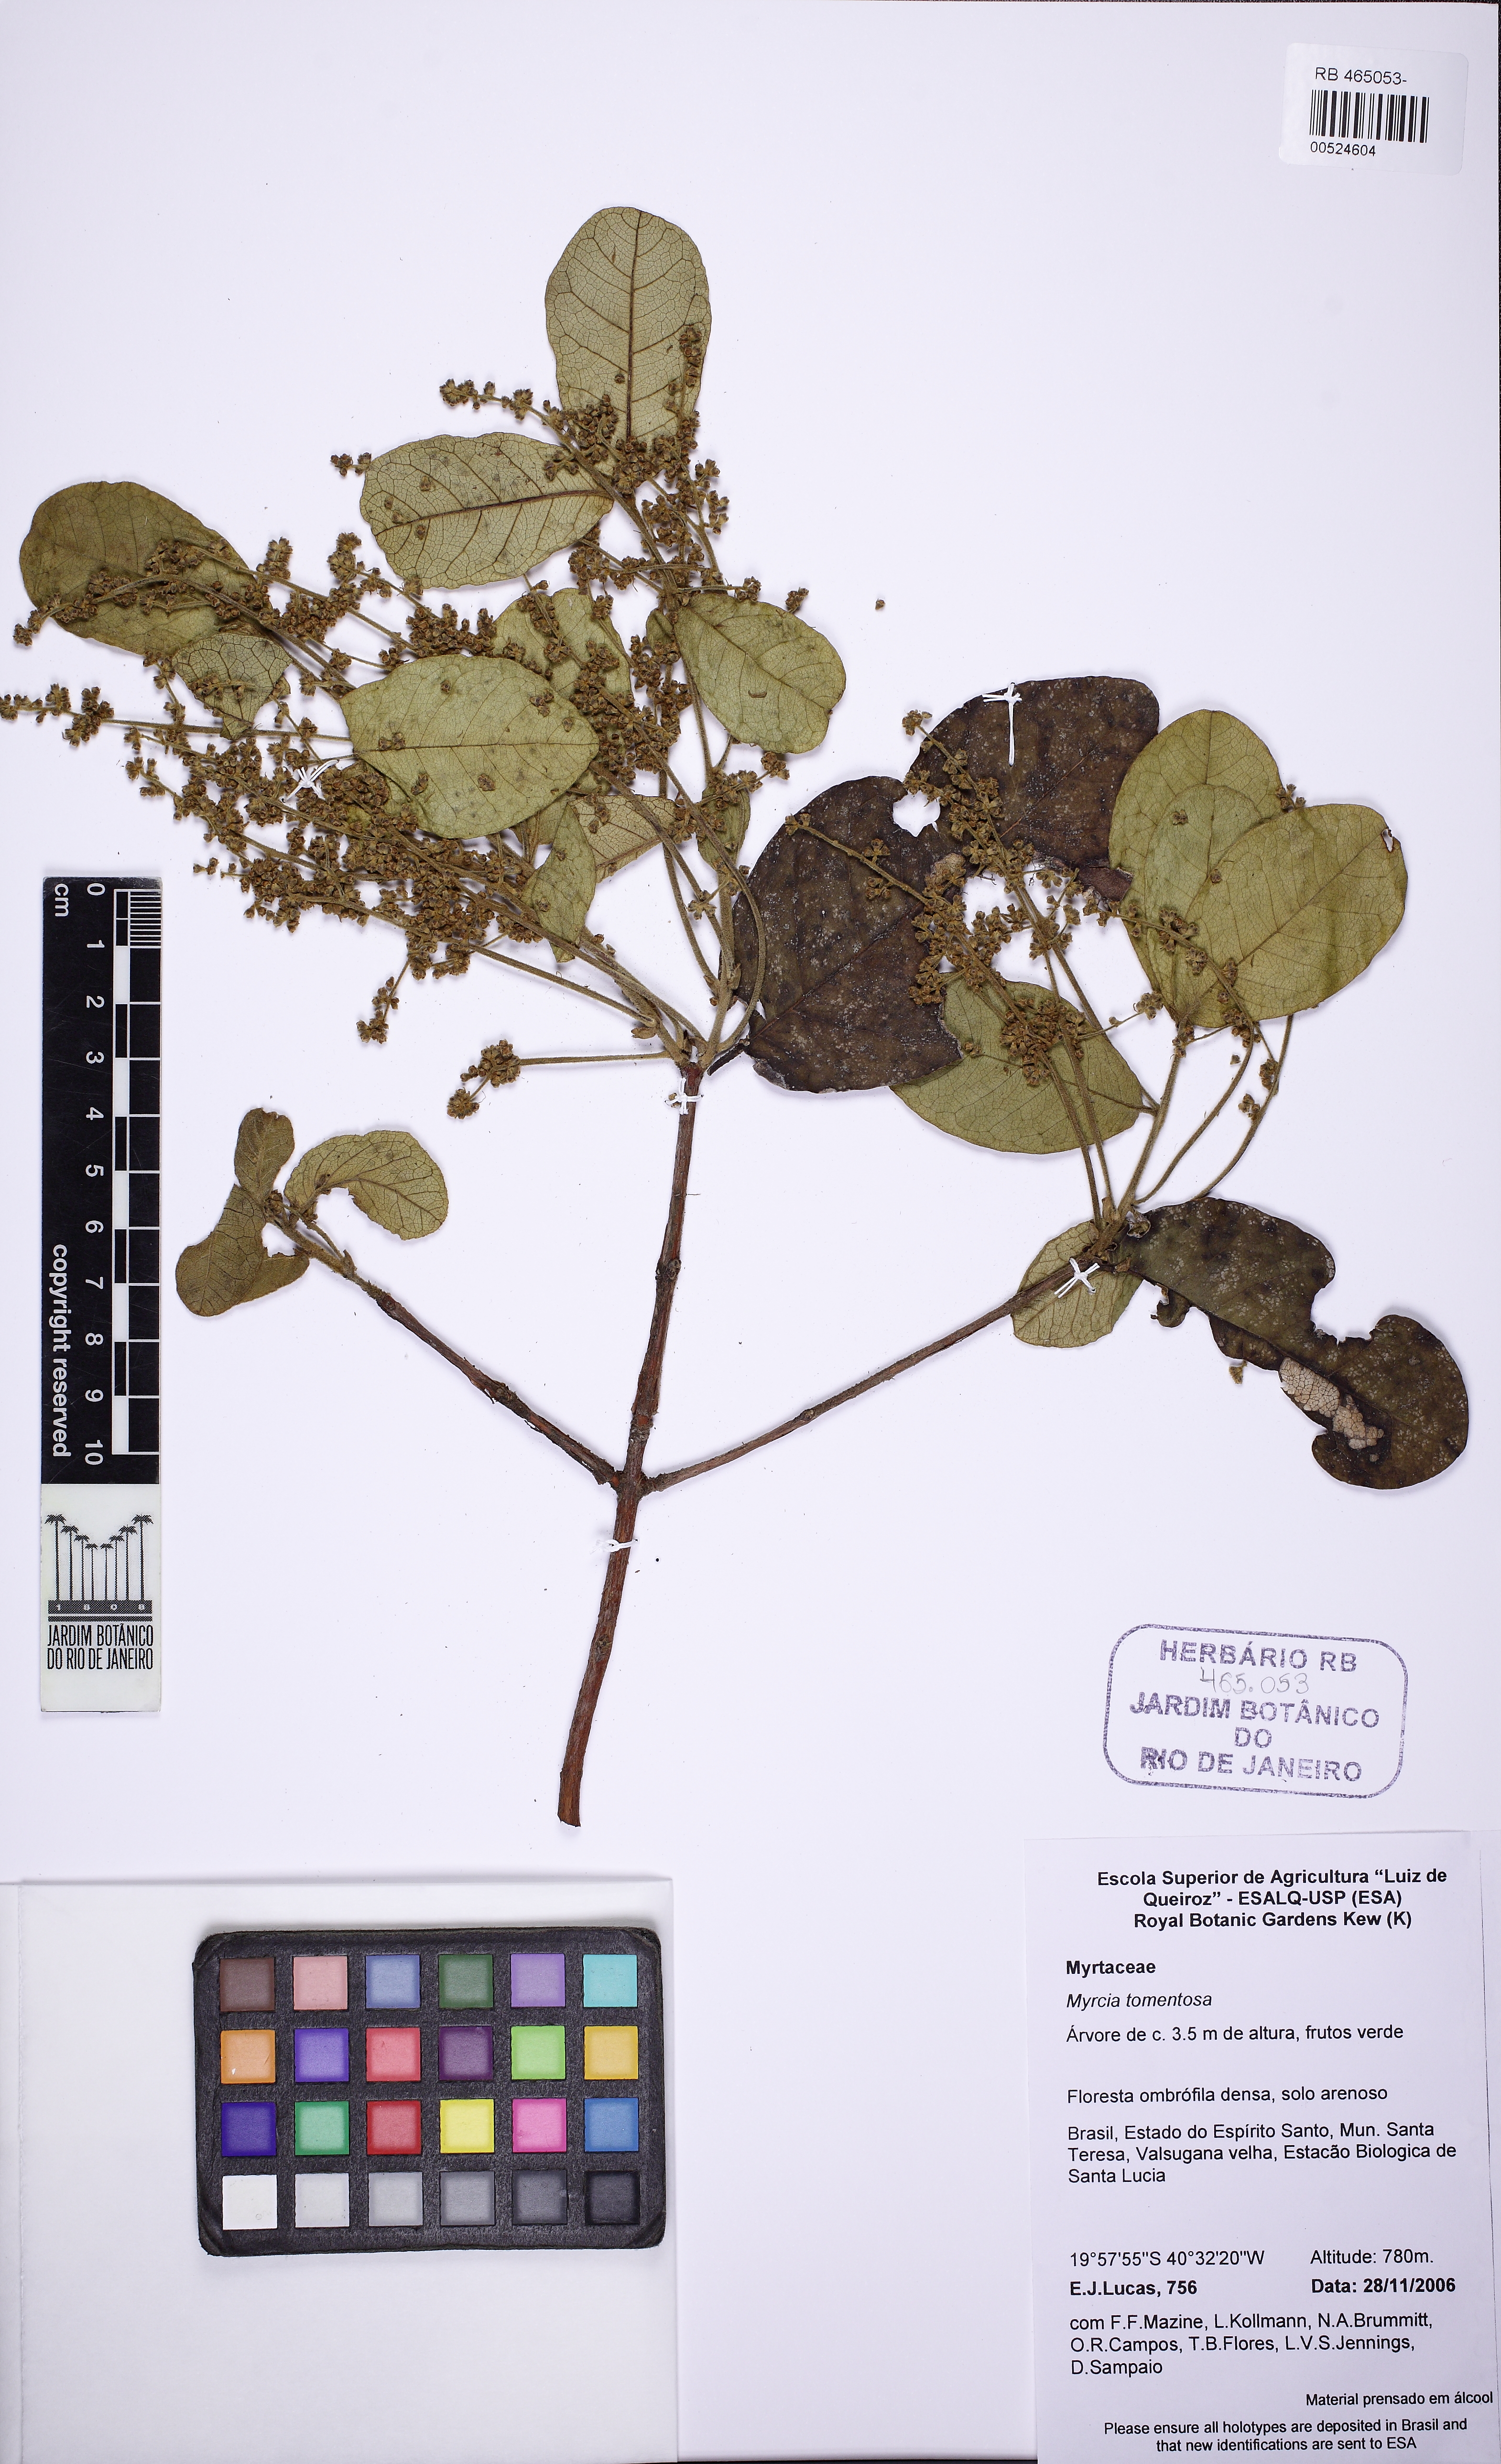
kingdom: Plantae
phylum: Tracheophyta
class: Magnoliopsida
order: Myrtales
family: Myrtaceae
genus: Myrcia
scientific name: Myrcia tomentosa
